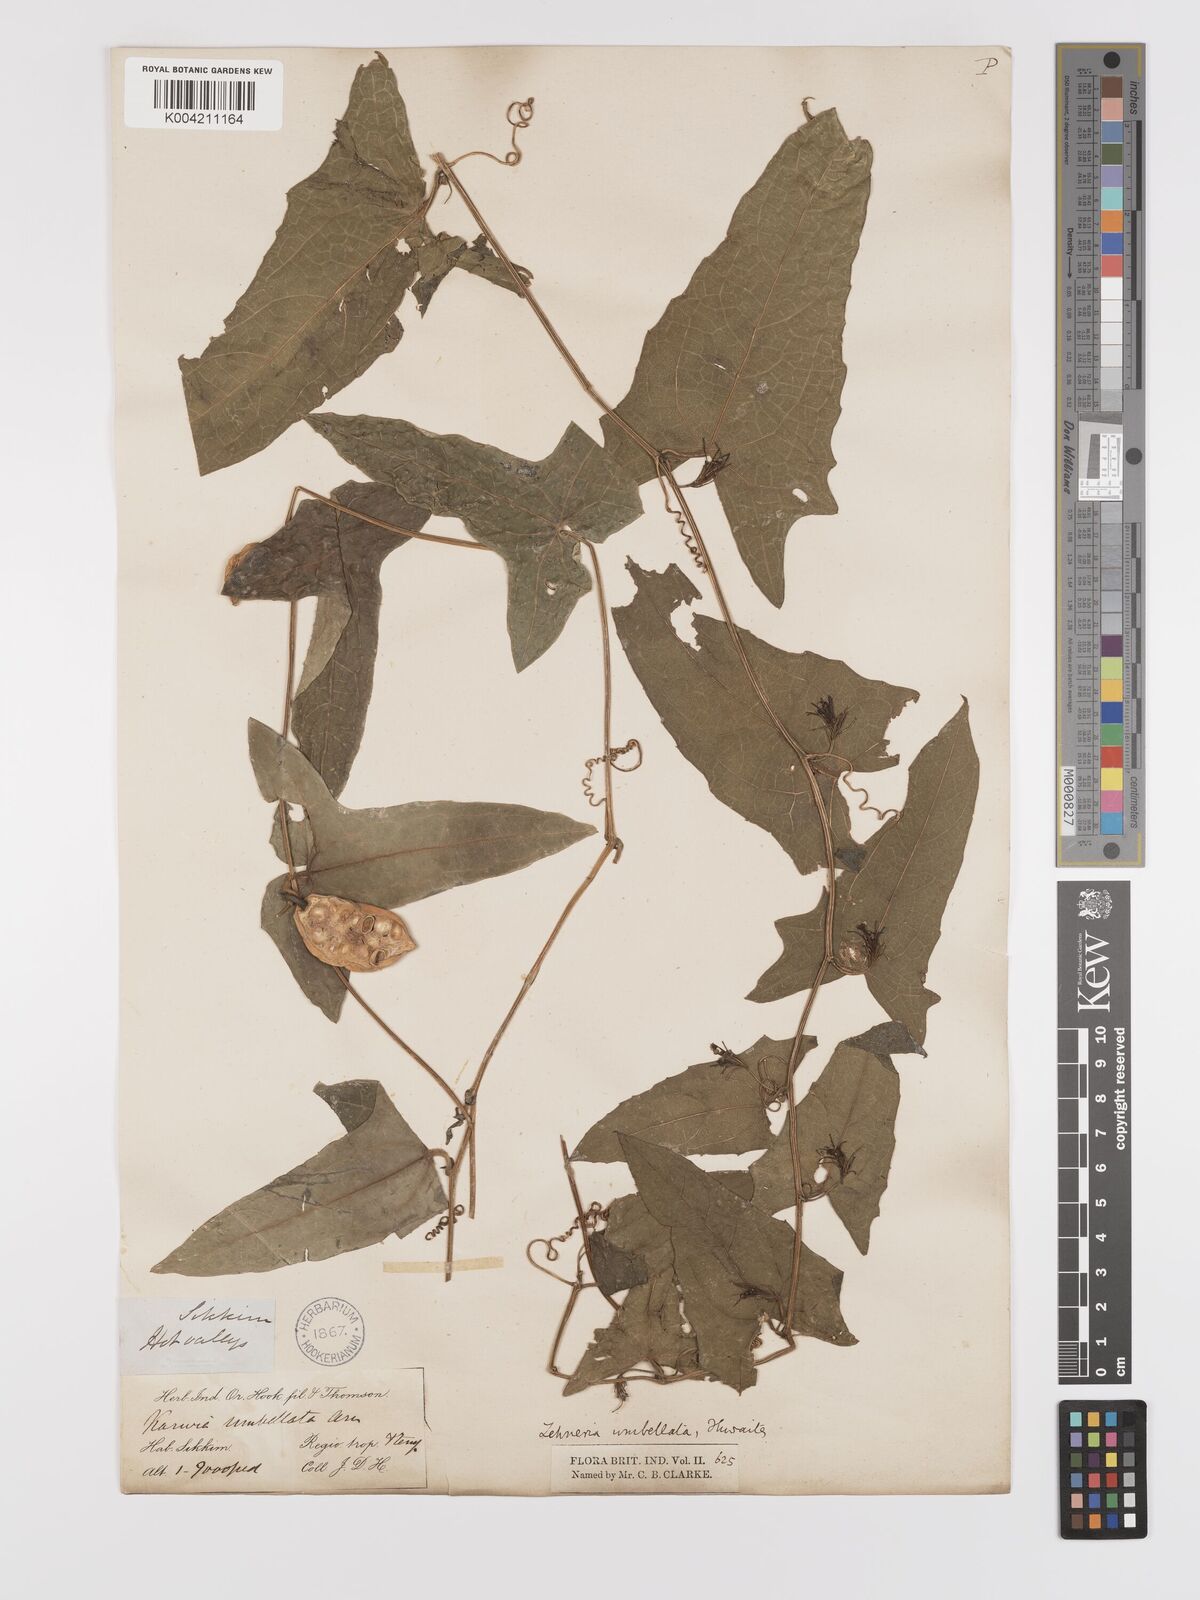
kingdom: Plantae
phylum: Tracheophyta
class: Magnoliopsida
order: Cucurbitales
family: Cucurbitaceae
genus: Solena
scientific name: Solena amplexicaulis
